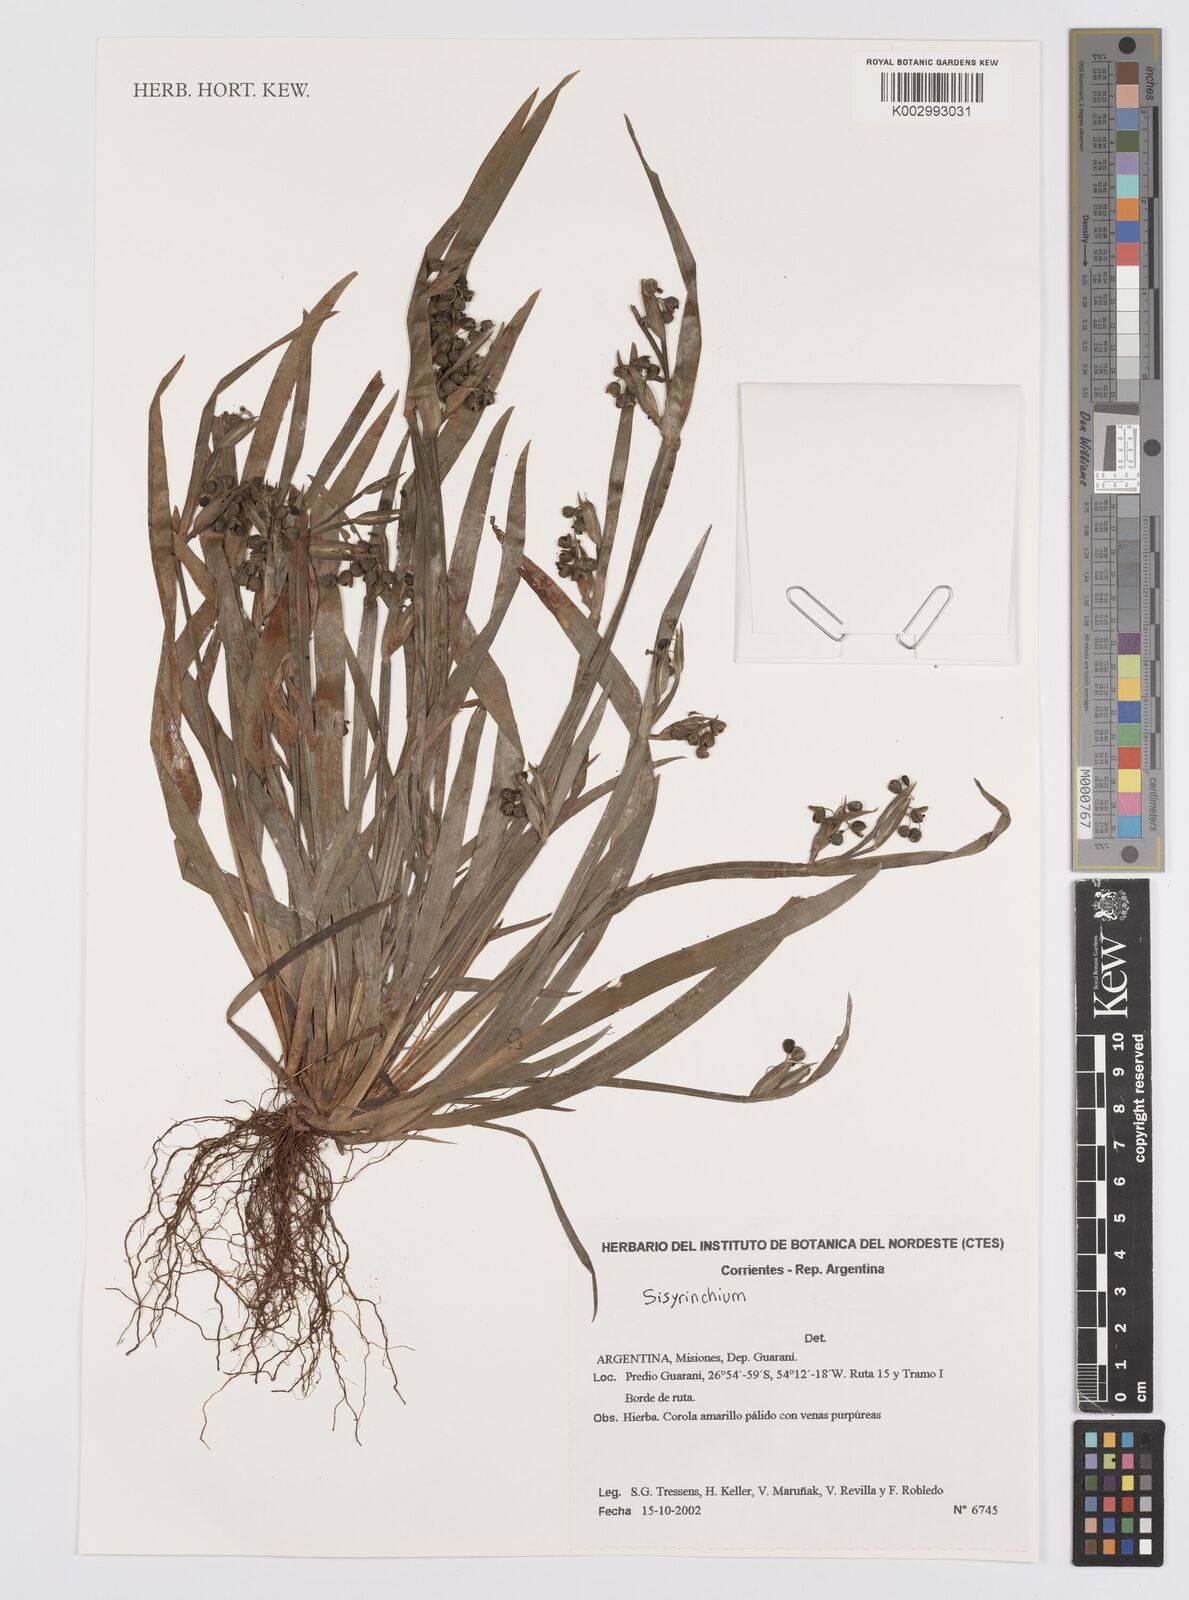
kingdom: Plantae
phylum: Tracheophyta
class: Liliopsida
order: Asparagales
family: Iridaceae
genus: Sisyrinchium
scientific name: Sisyrinchium
